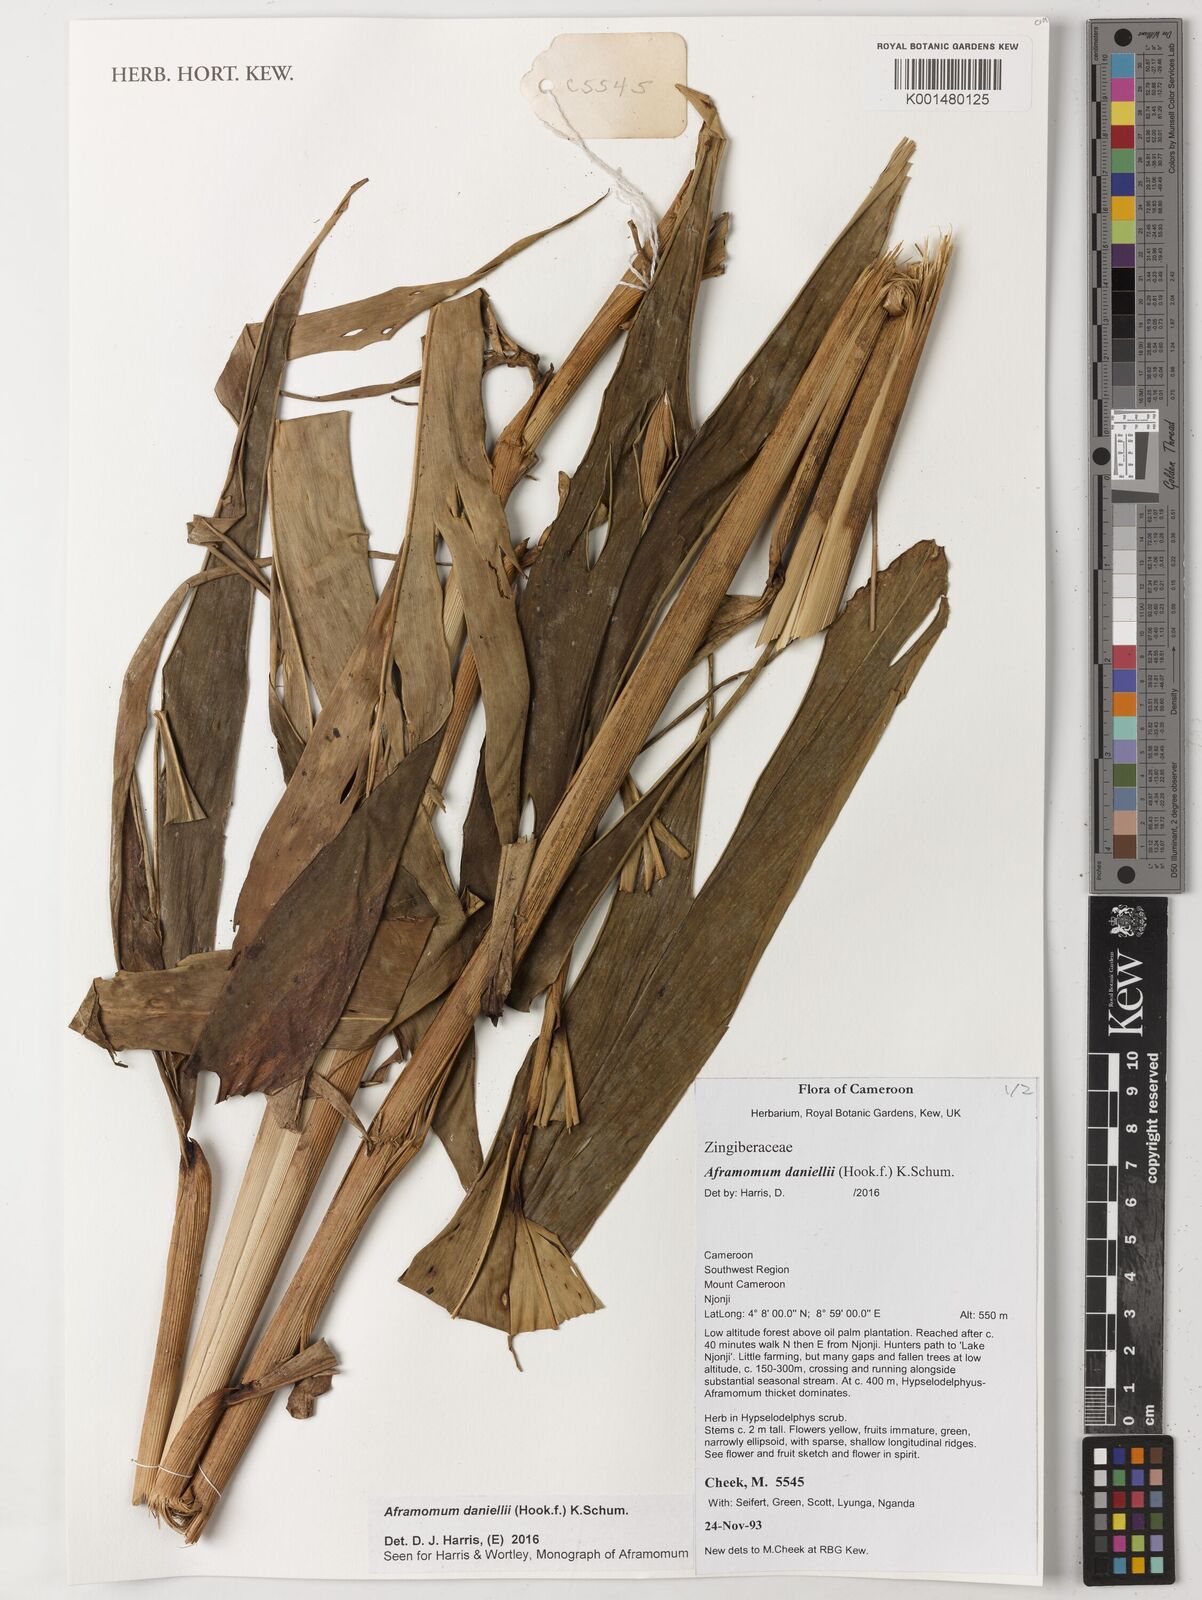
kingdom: Plantae
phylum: Tracheophyta
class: Liliopsida
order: Zingiberales
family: Zingiberaceae
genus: Aframomum
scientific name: Aframomum daniellii
